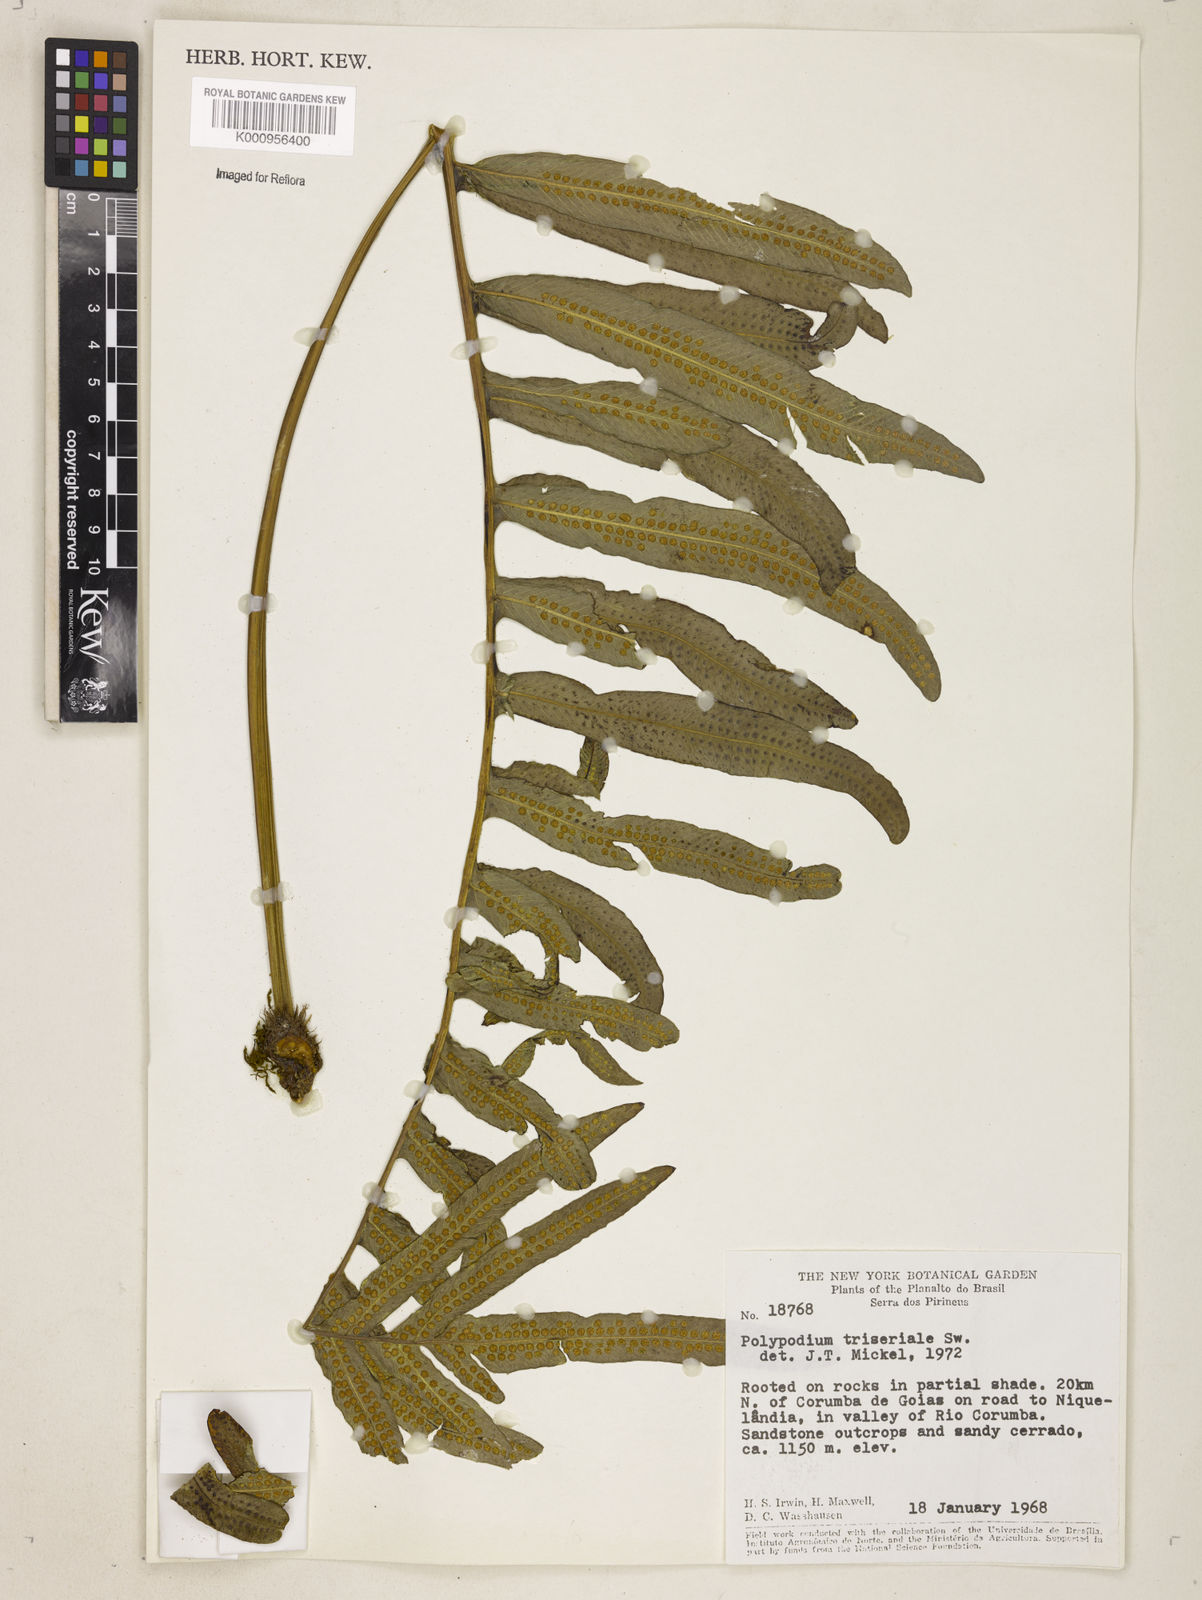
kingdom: Plantae
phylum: Tracheophyta
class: Polypodiopsida
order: Polypodiales
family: Polypodiaceae
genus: Serpocaulon
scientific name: Serpocaulon triseriale
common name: Angle-vein fern
